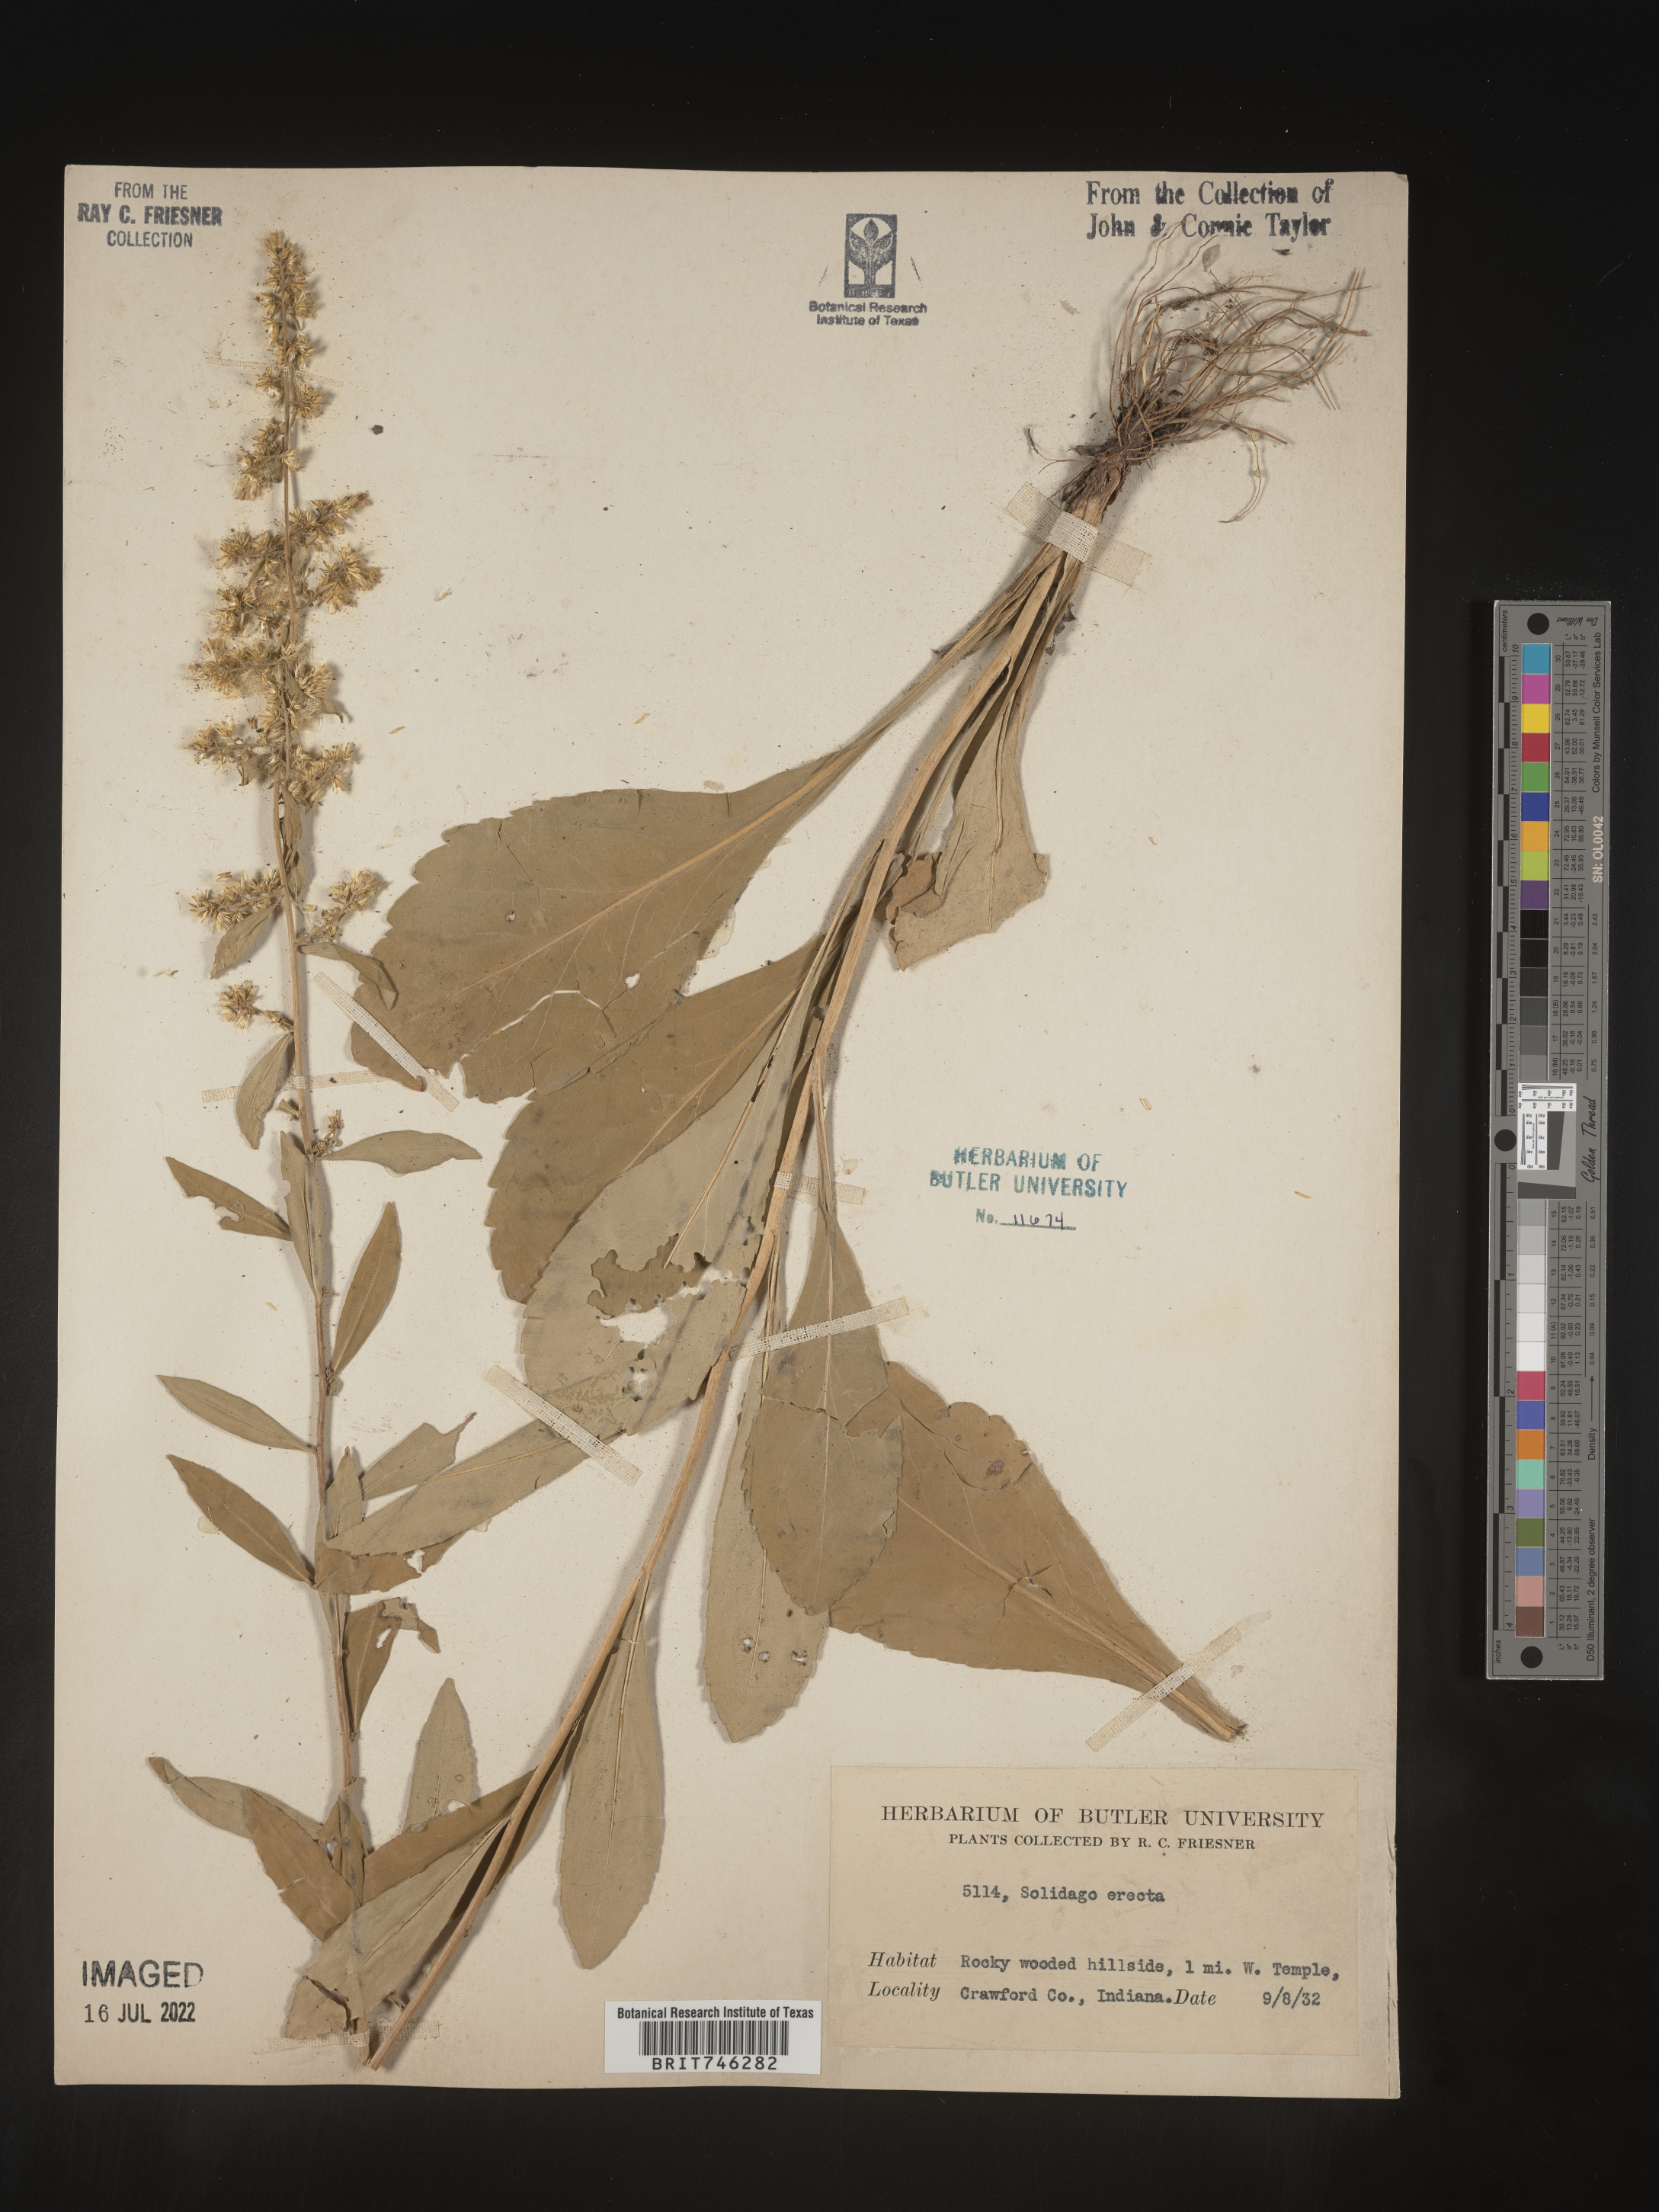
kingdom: Plantae
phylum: Tracheophyta
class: Magnoliopsida
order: Asterales
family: Asteraceae
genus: Solidago
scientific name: Solidago erecta
